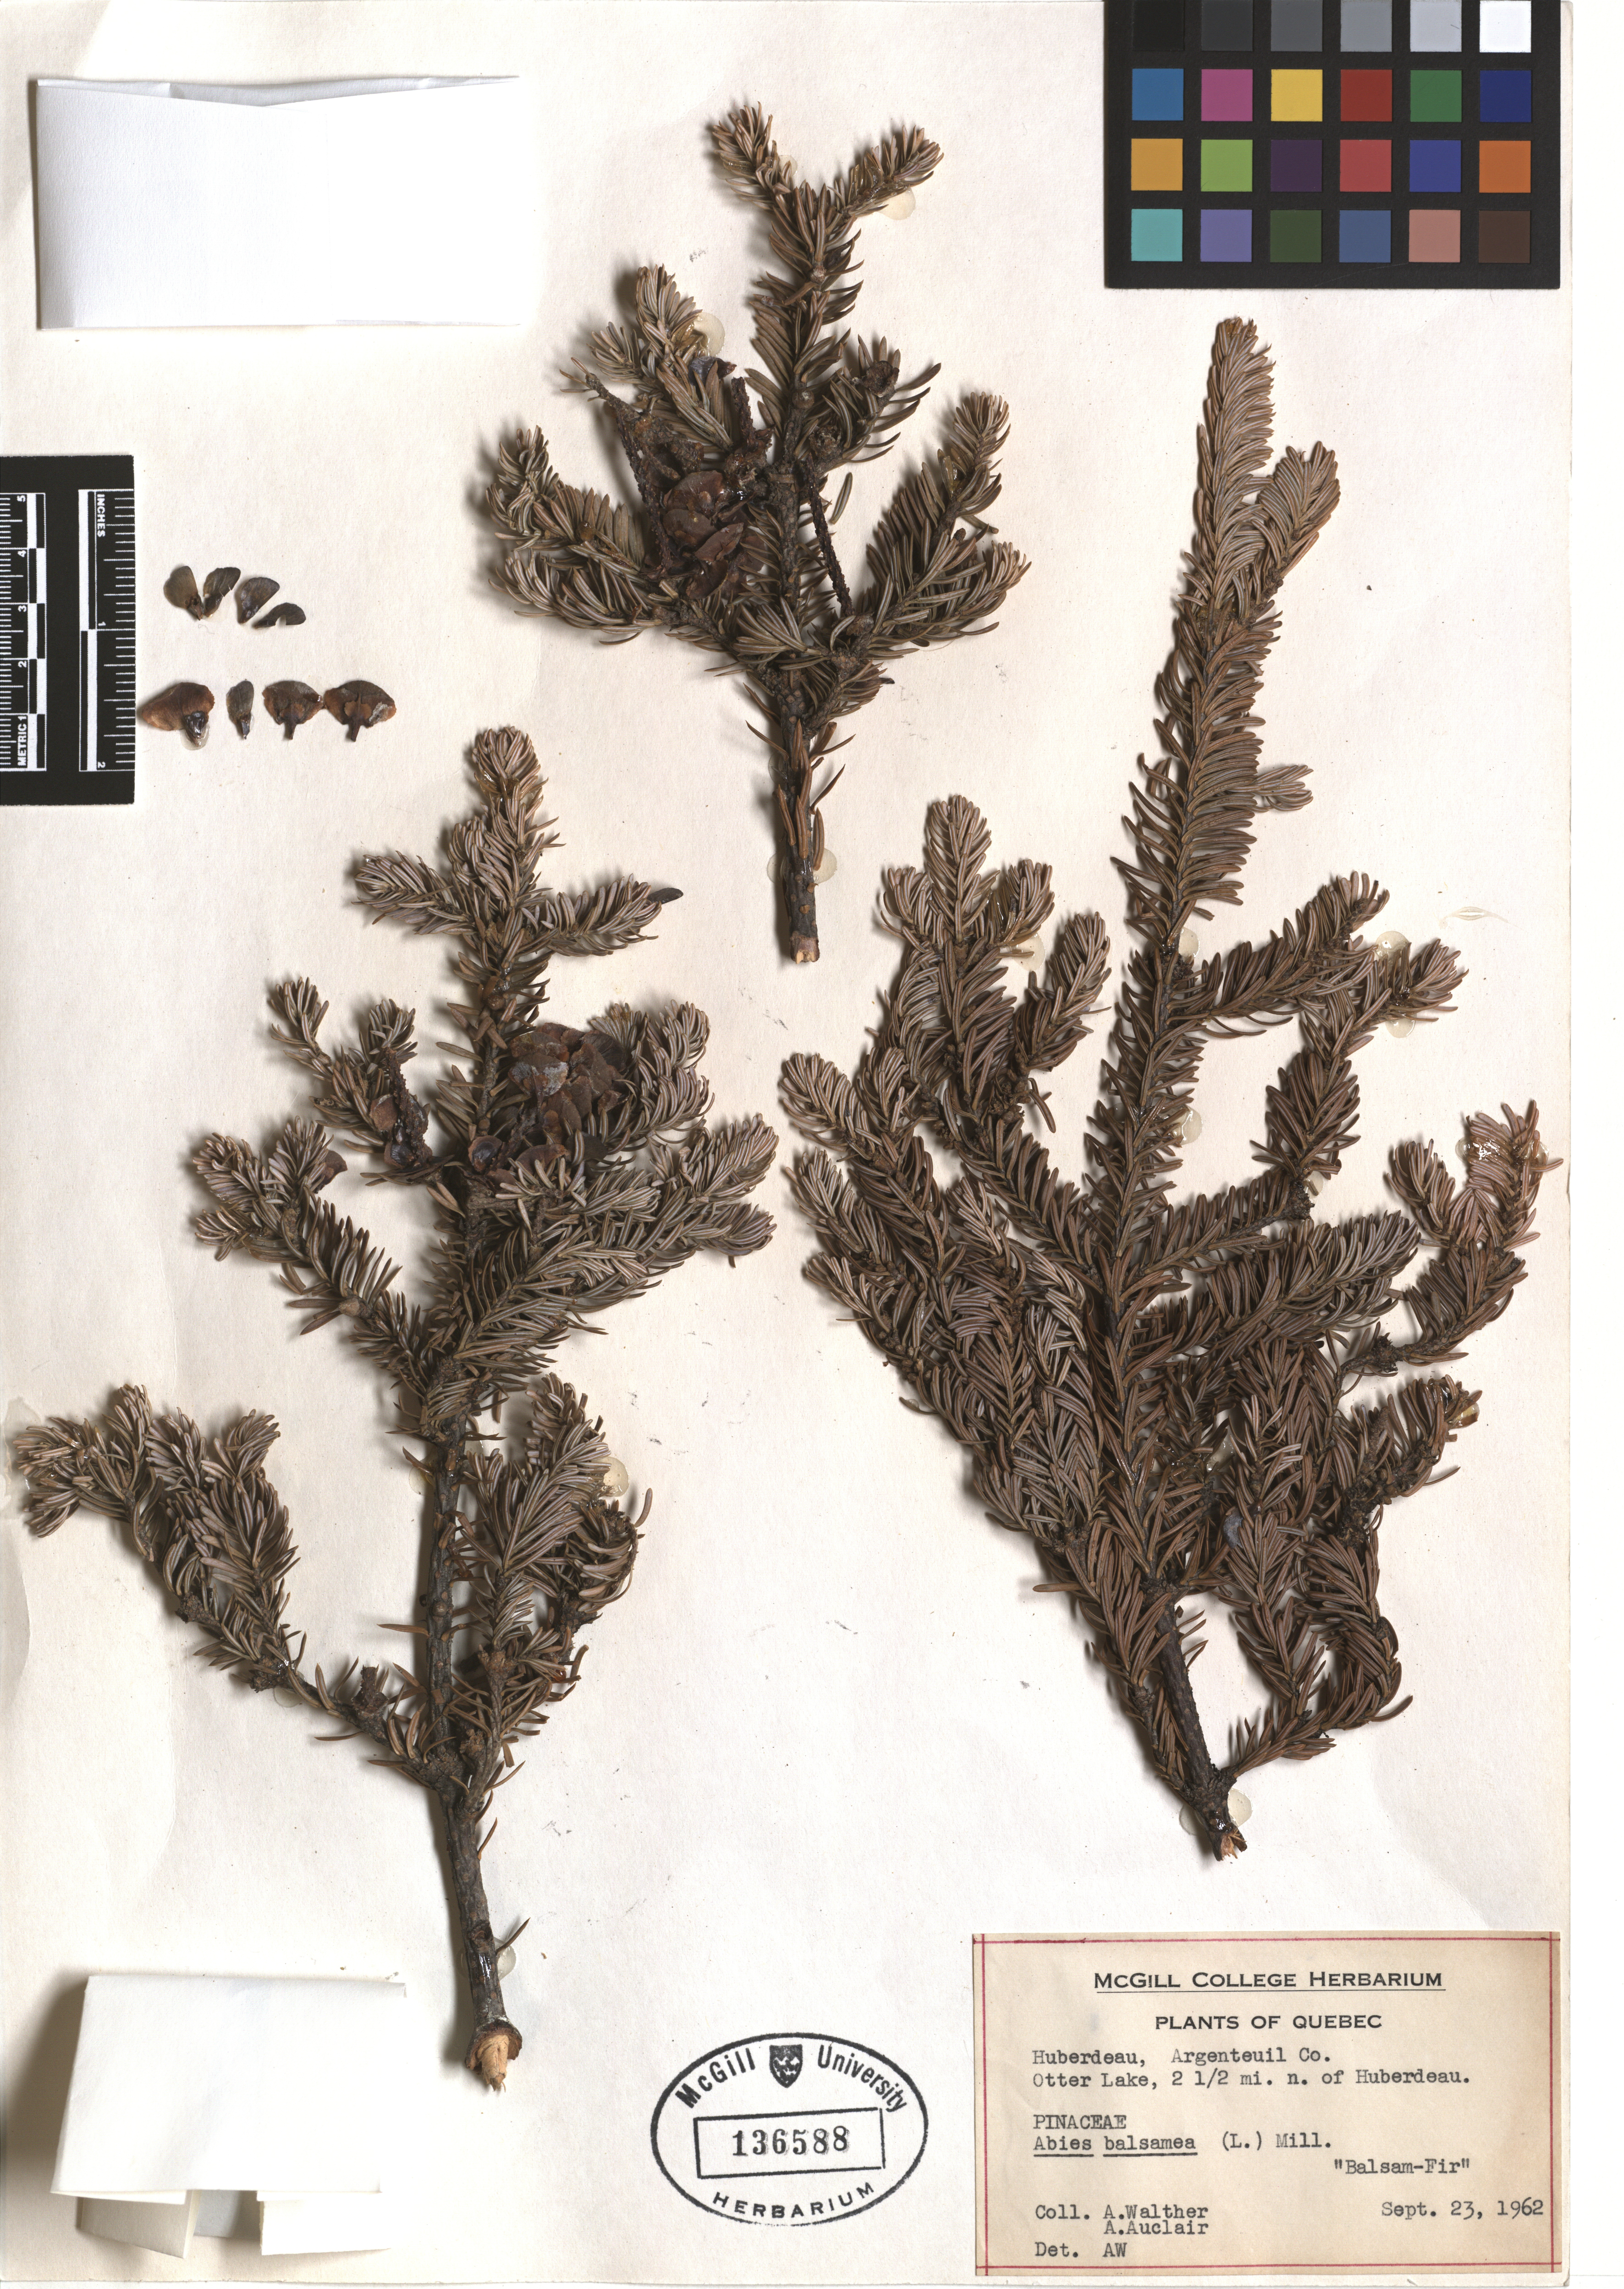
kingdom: Plantae
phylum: Tracheophyta
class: Pinopsida
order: Pinales
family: Pinaceae
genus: Abies
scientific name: Abies balsamea
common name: Balsam fir
